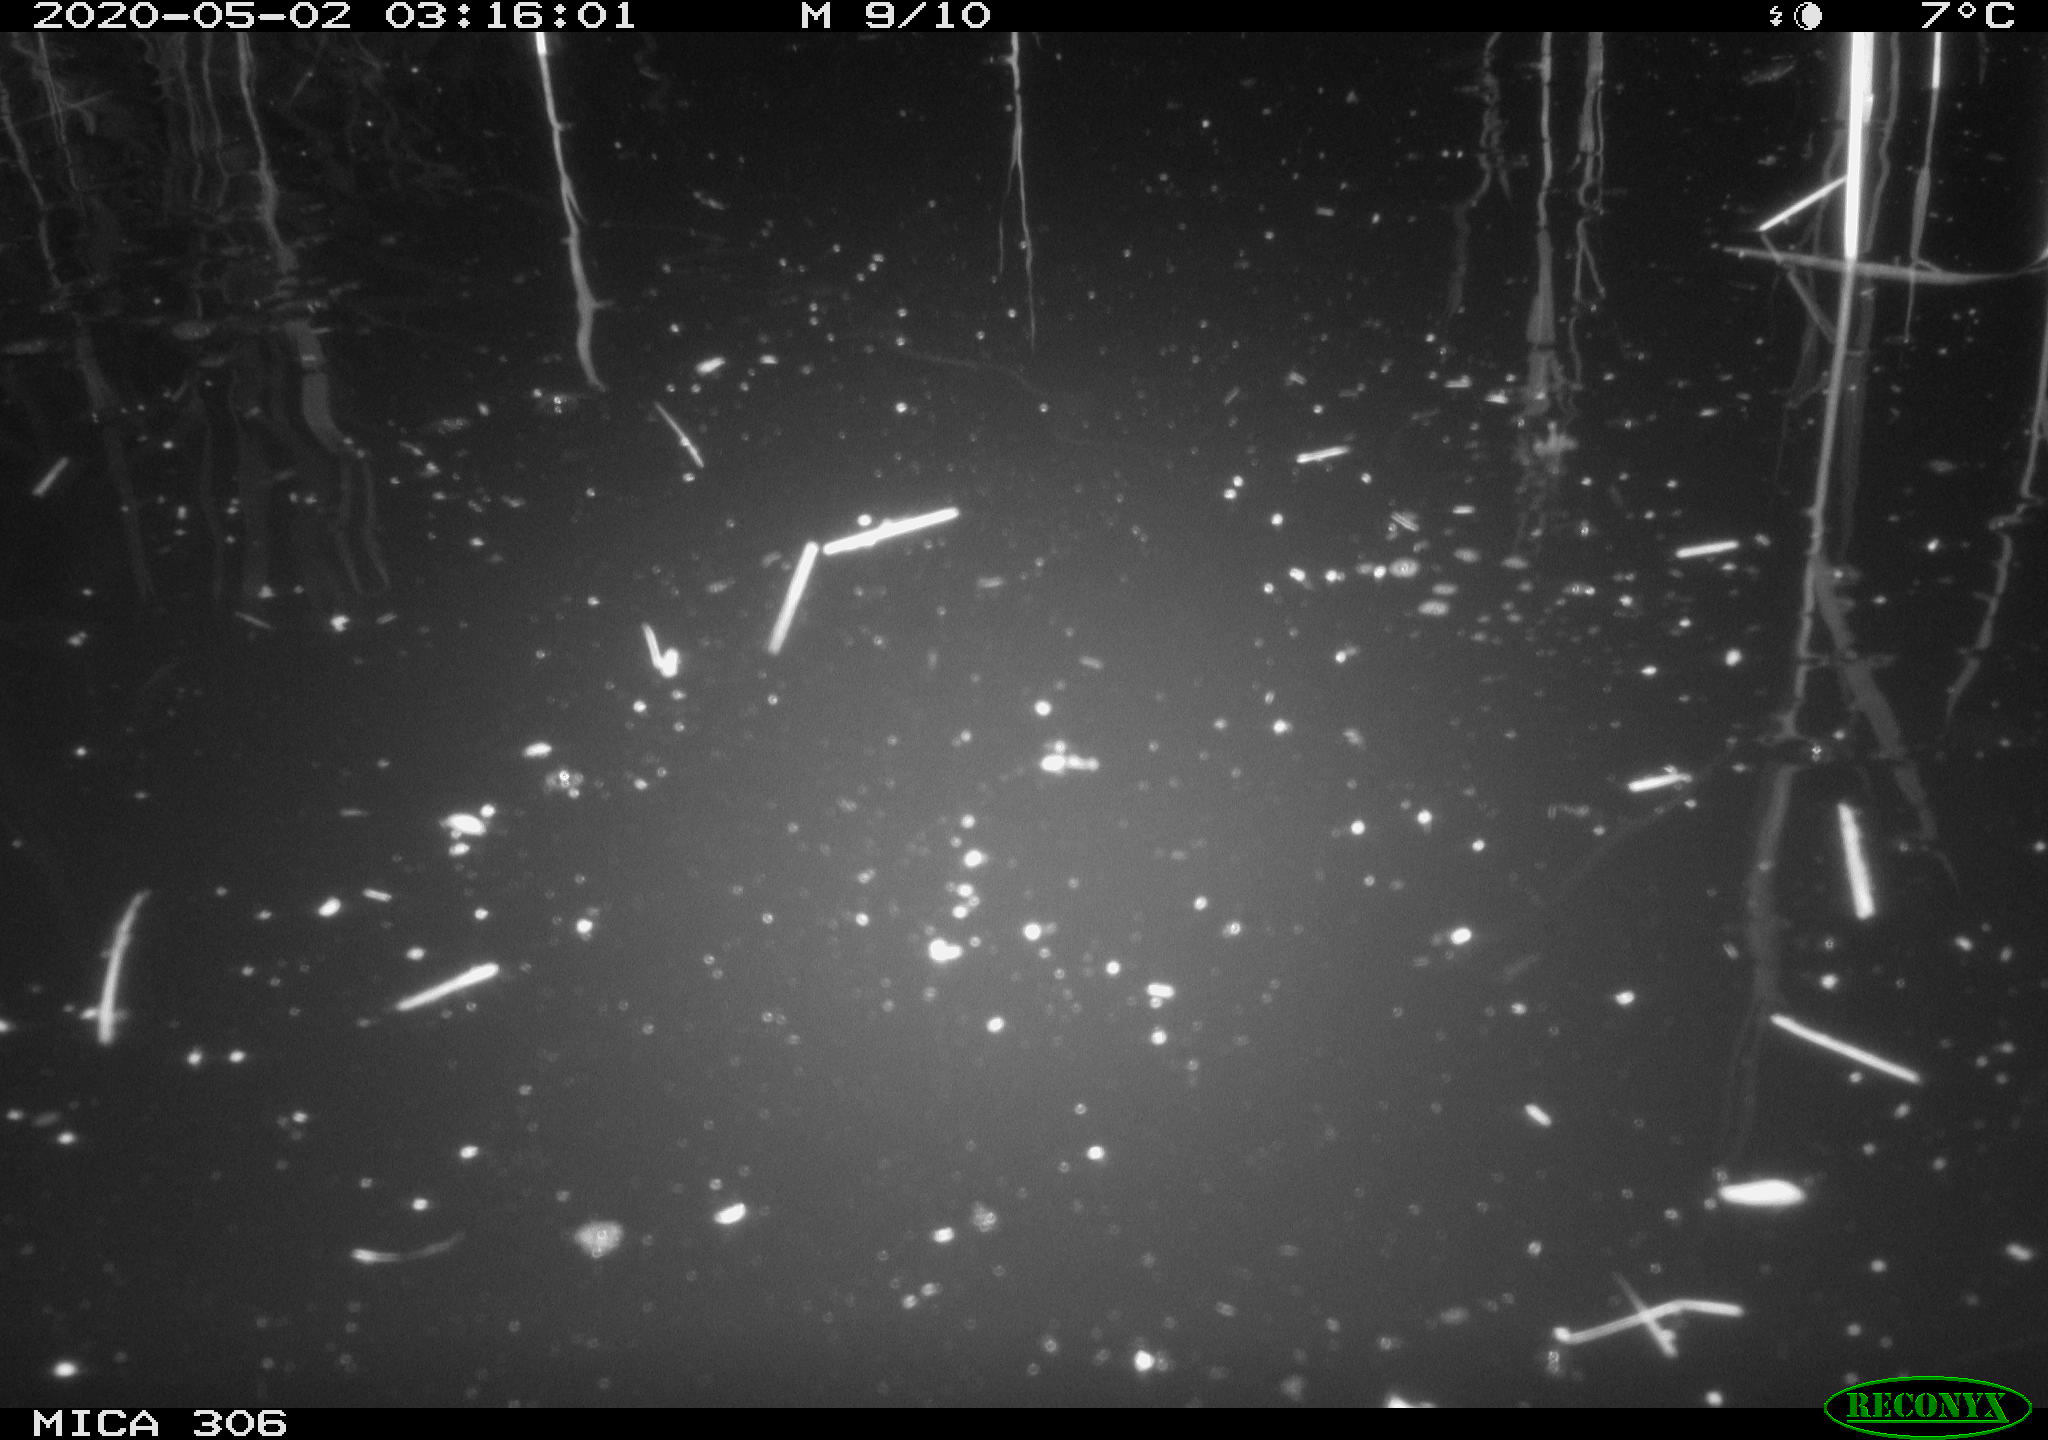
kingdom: Animalia
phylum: Chordata
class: Mammalia
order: Rodentia
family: Cricetidae
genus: Ondatra
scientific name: Ondatra zibethicus
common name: Muskrat
